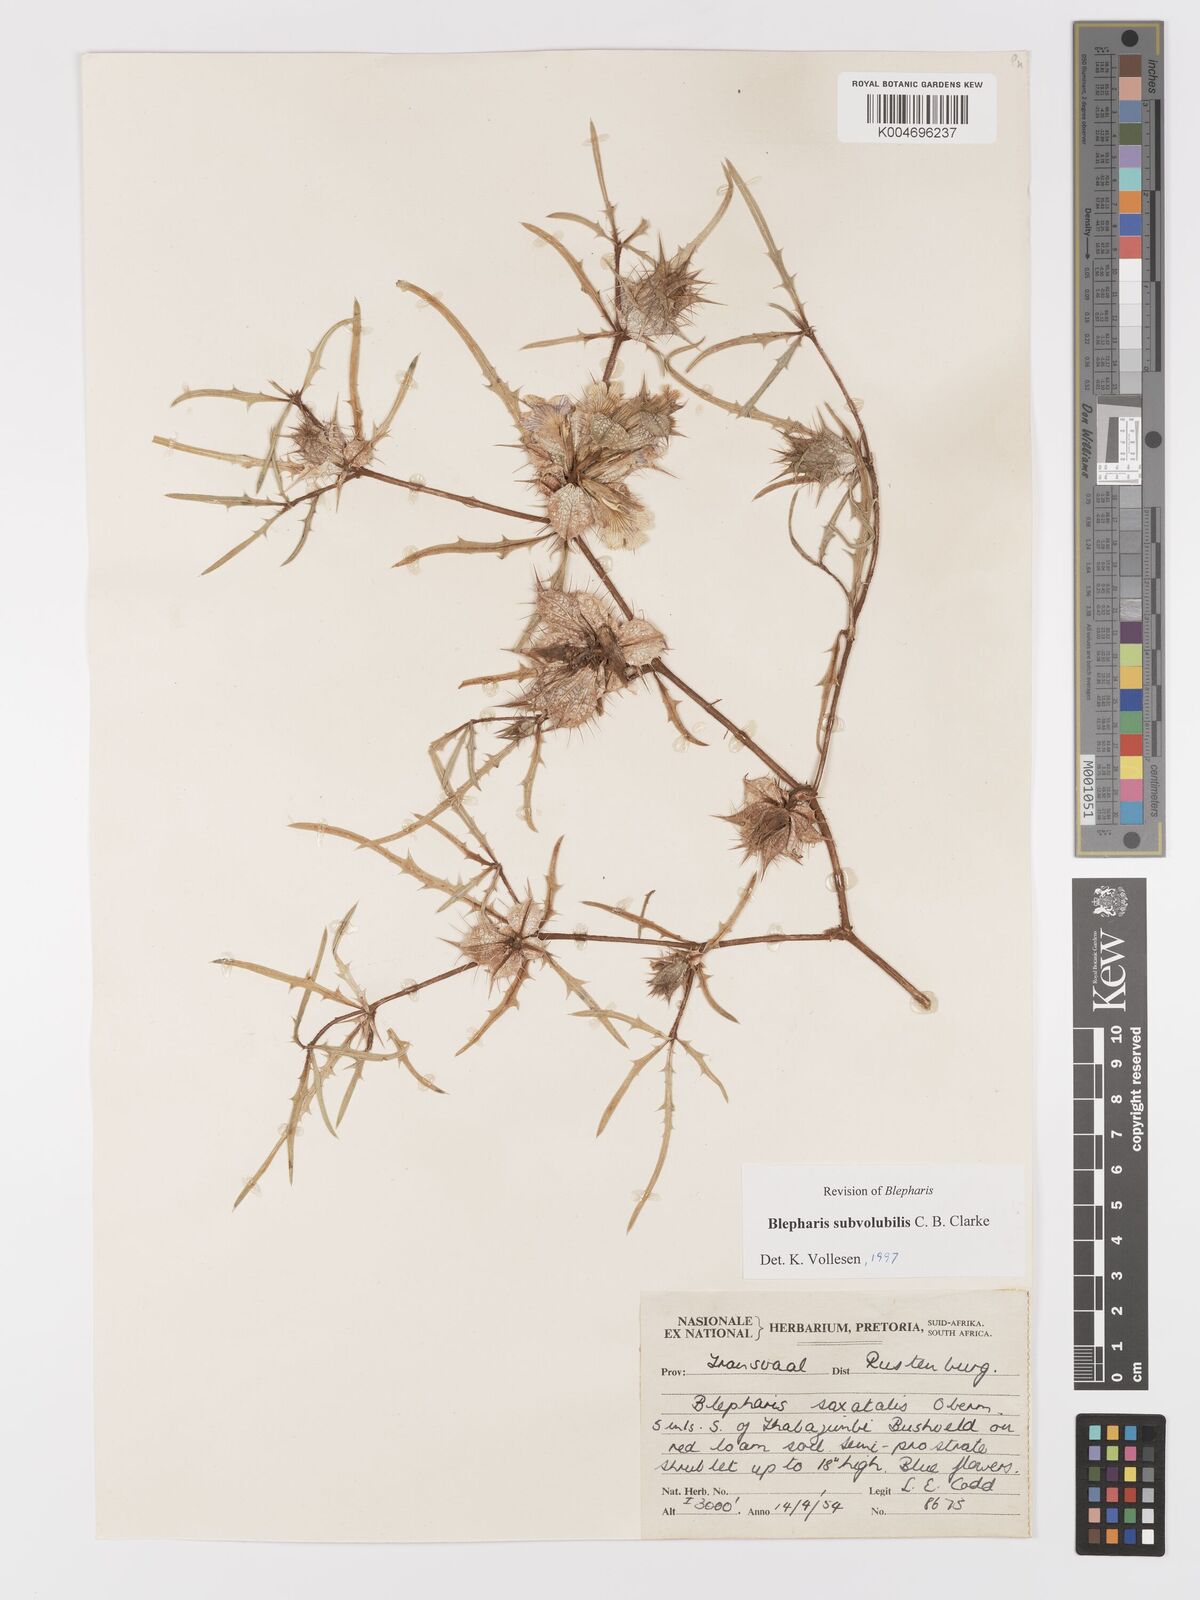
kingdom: Plantae
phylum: Tracheophyta
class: Magnoliopsida
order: Lamiales
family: Acanthaceae
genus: Blepharis
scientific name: Blepharis subvolubilis
